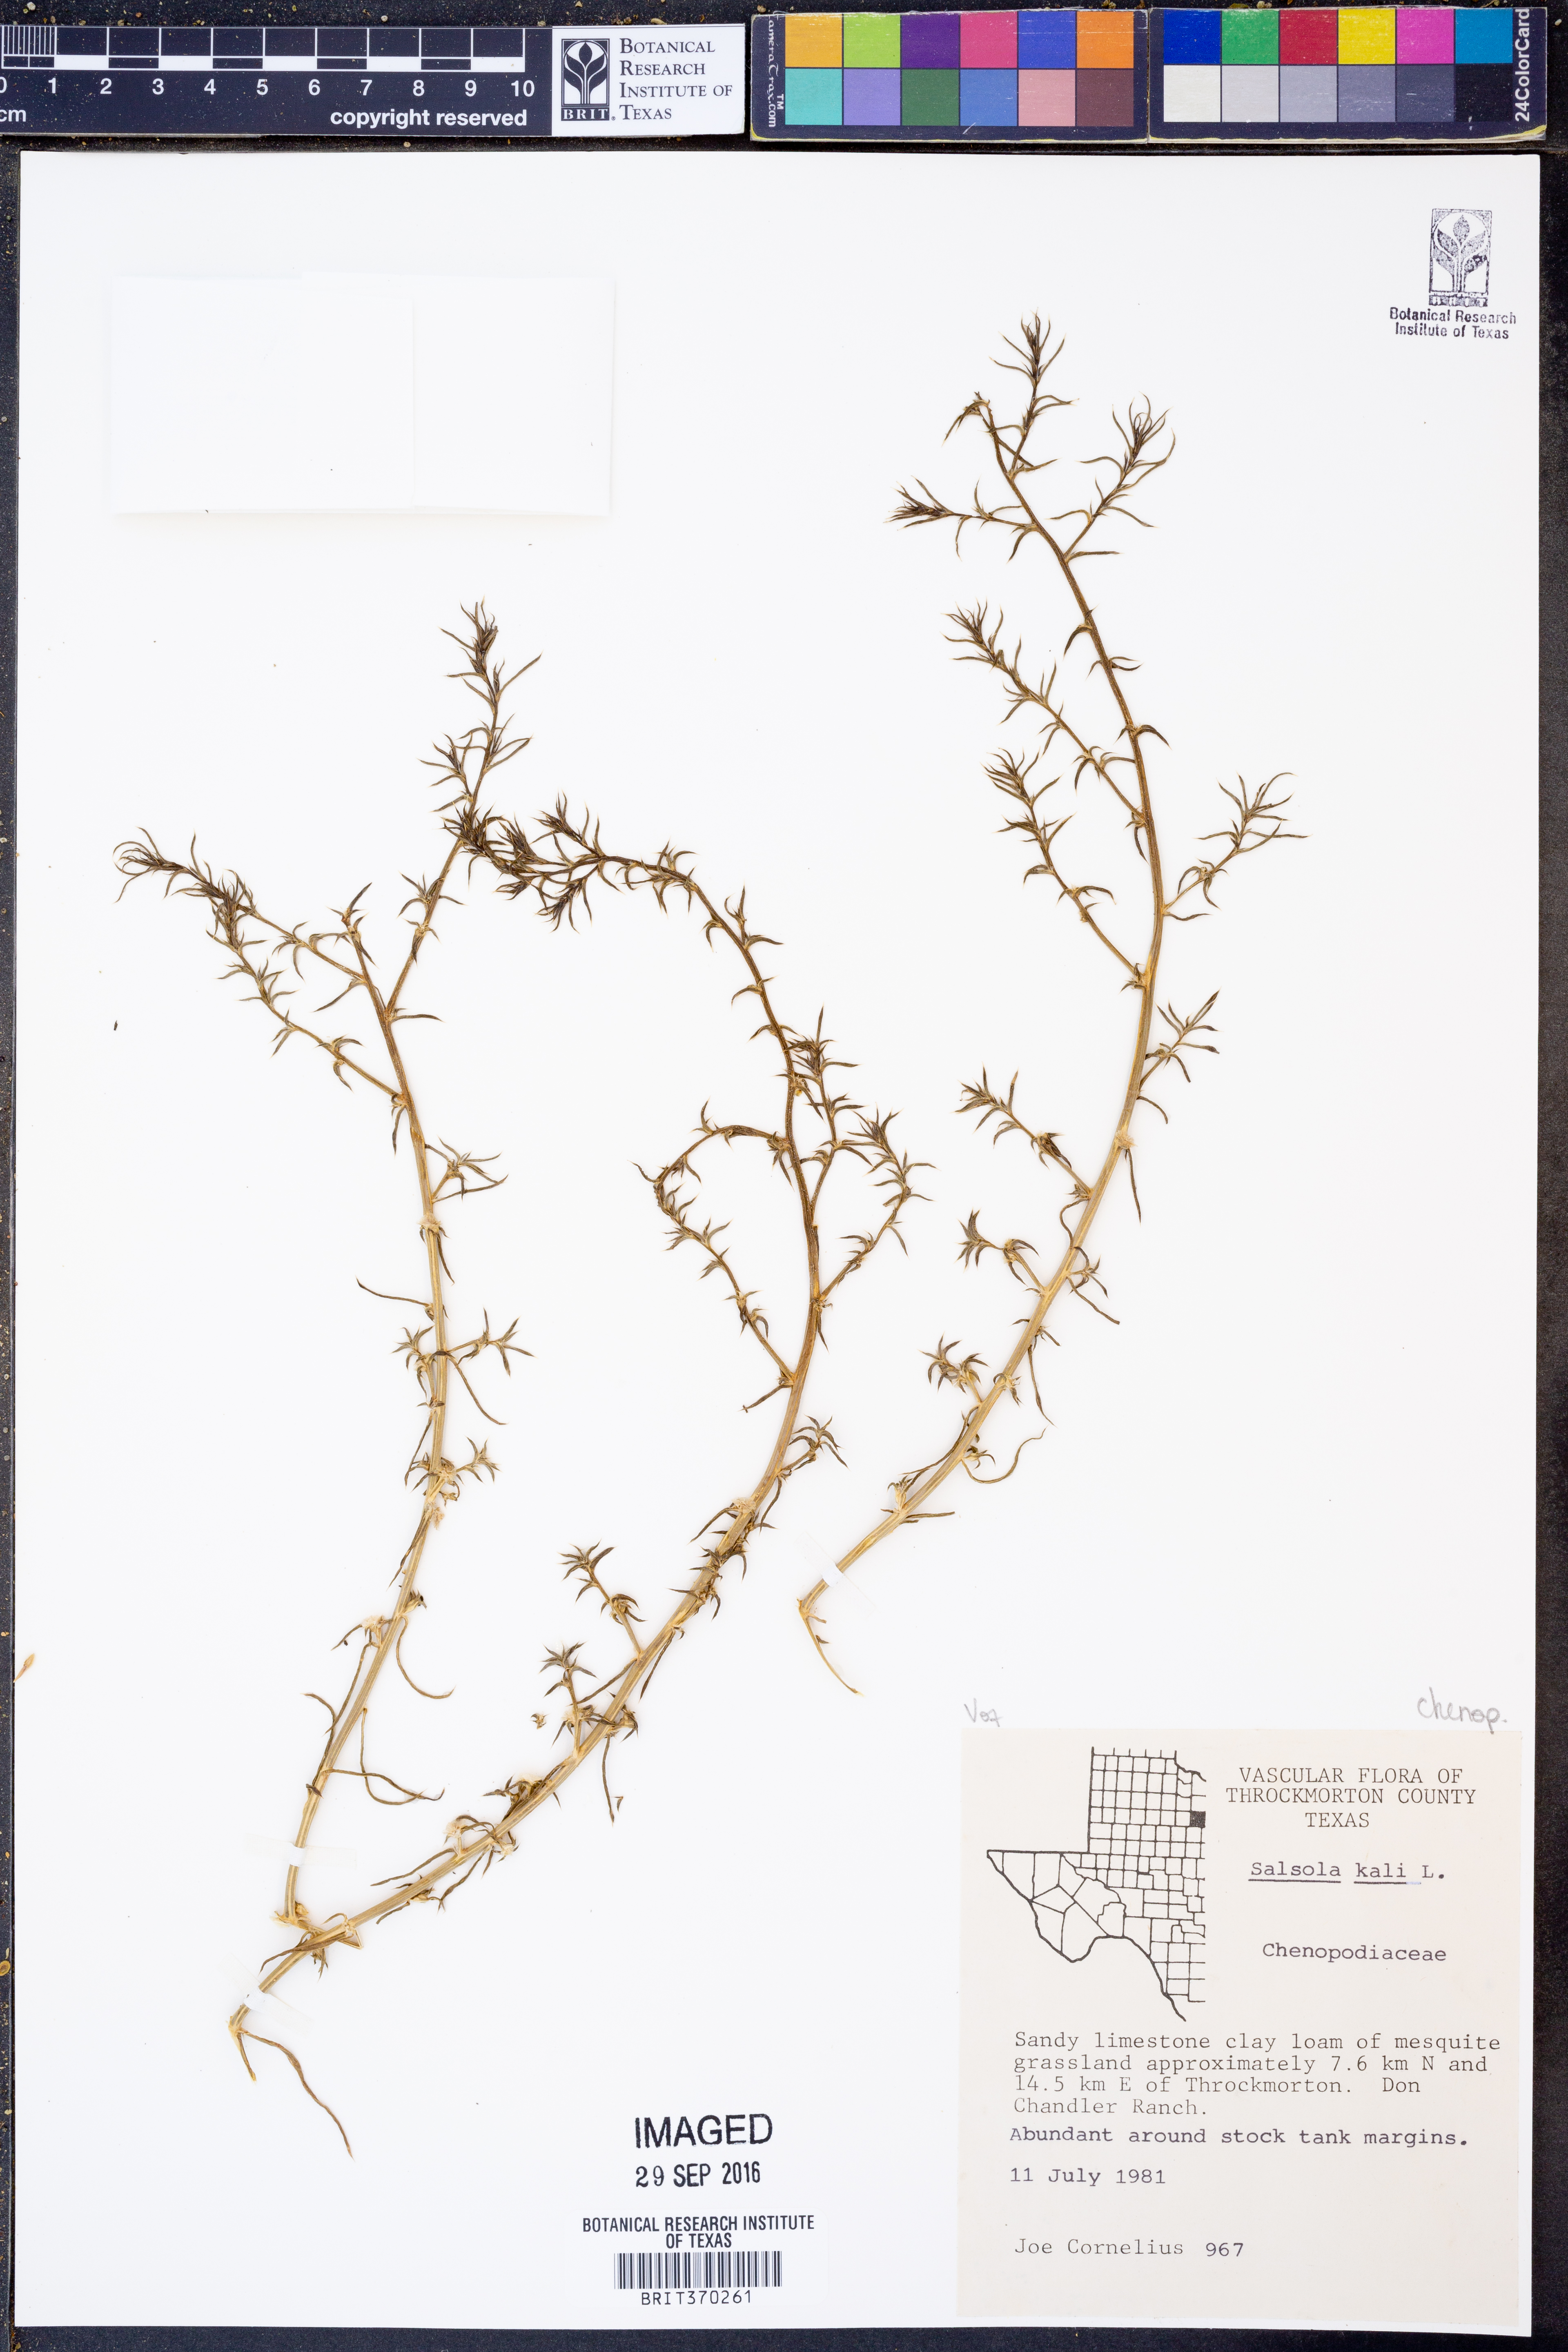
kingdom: Plantae
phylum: Tracheophyta
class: Magnoliopsida
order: Caryophyllales
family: Amaranthaceae
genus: Salsola
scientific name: Salsola kali
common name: Saltwort
